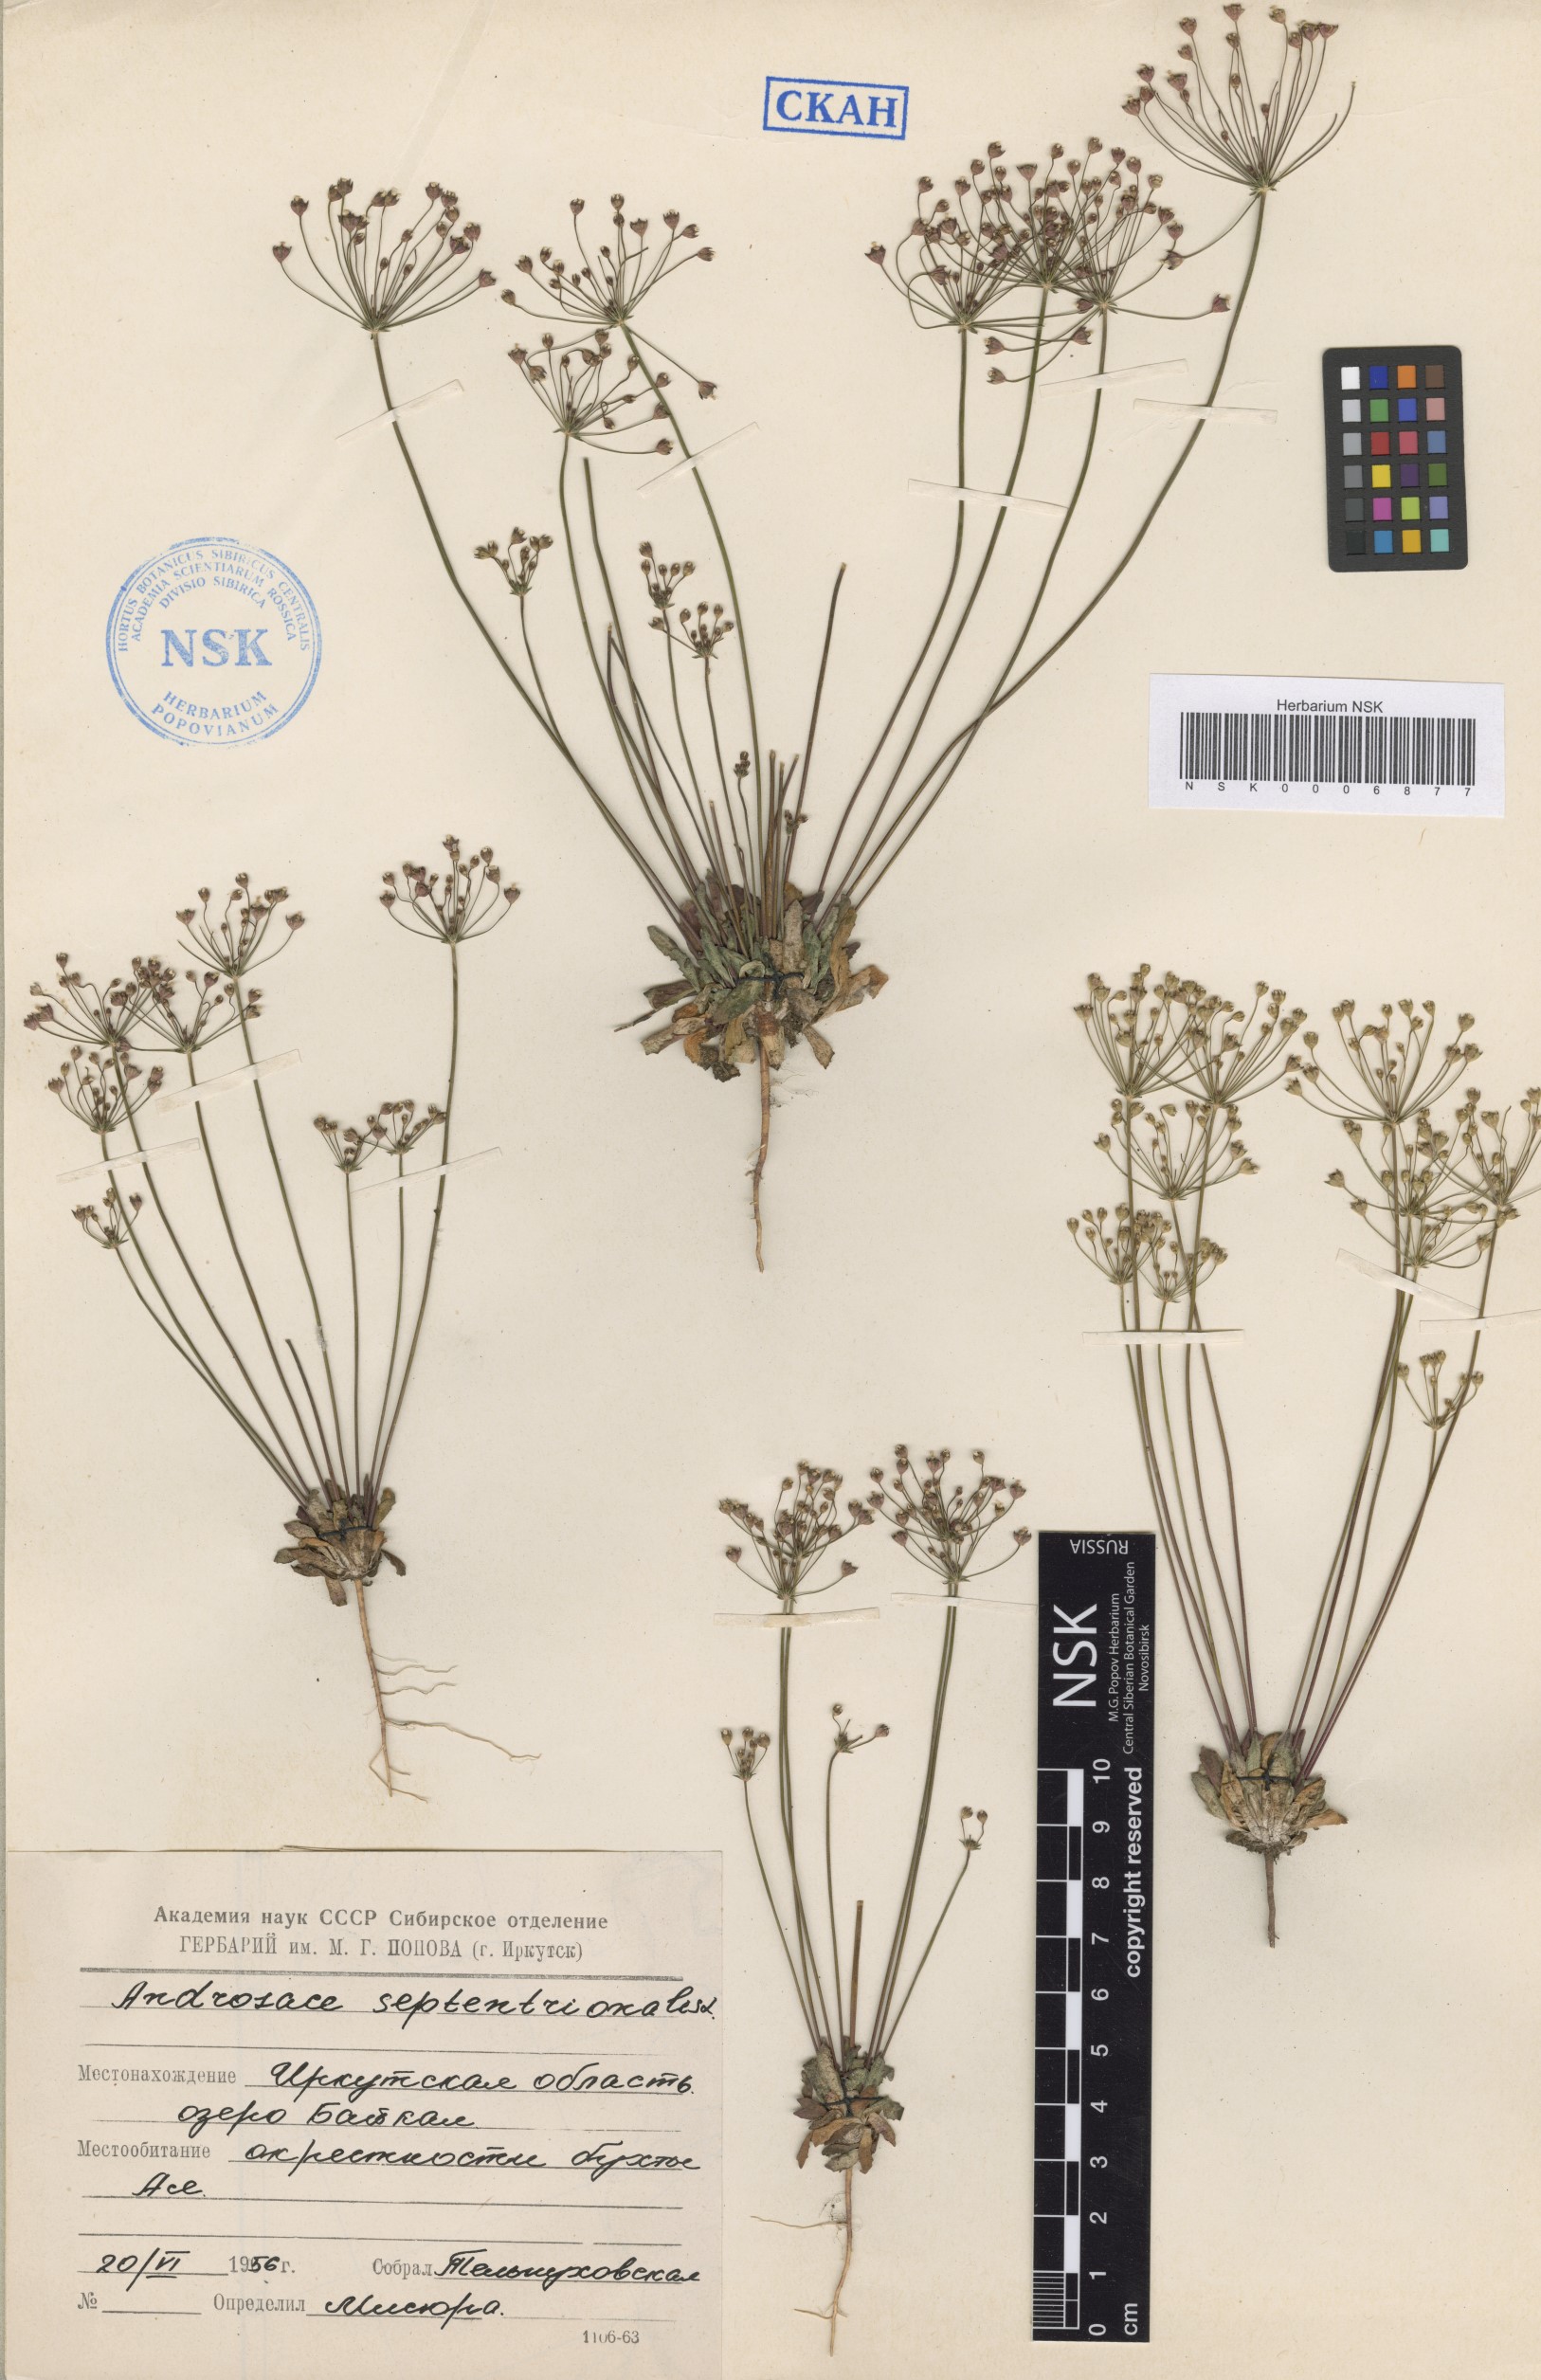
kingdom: Plantae
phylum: Tracheophyta
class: Magnoliopsida
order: Ericales
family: Primulaceae
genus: Androsace
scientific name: Androsace septentrionalis
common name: Hairy northern fairy-candelabra
